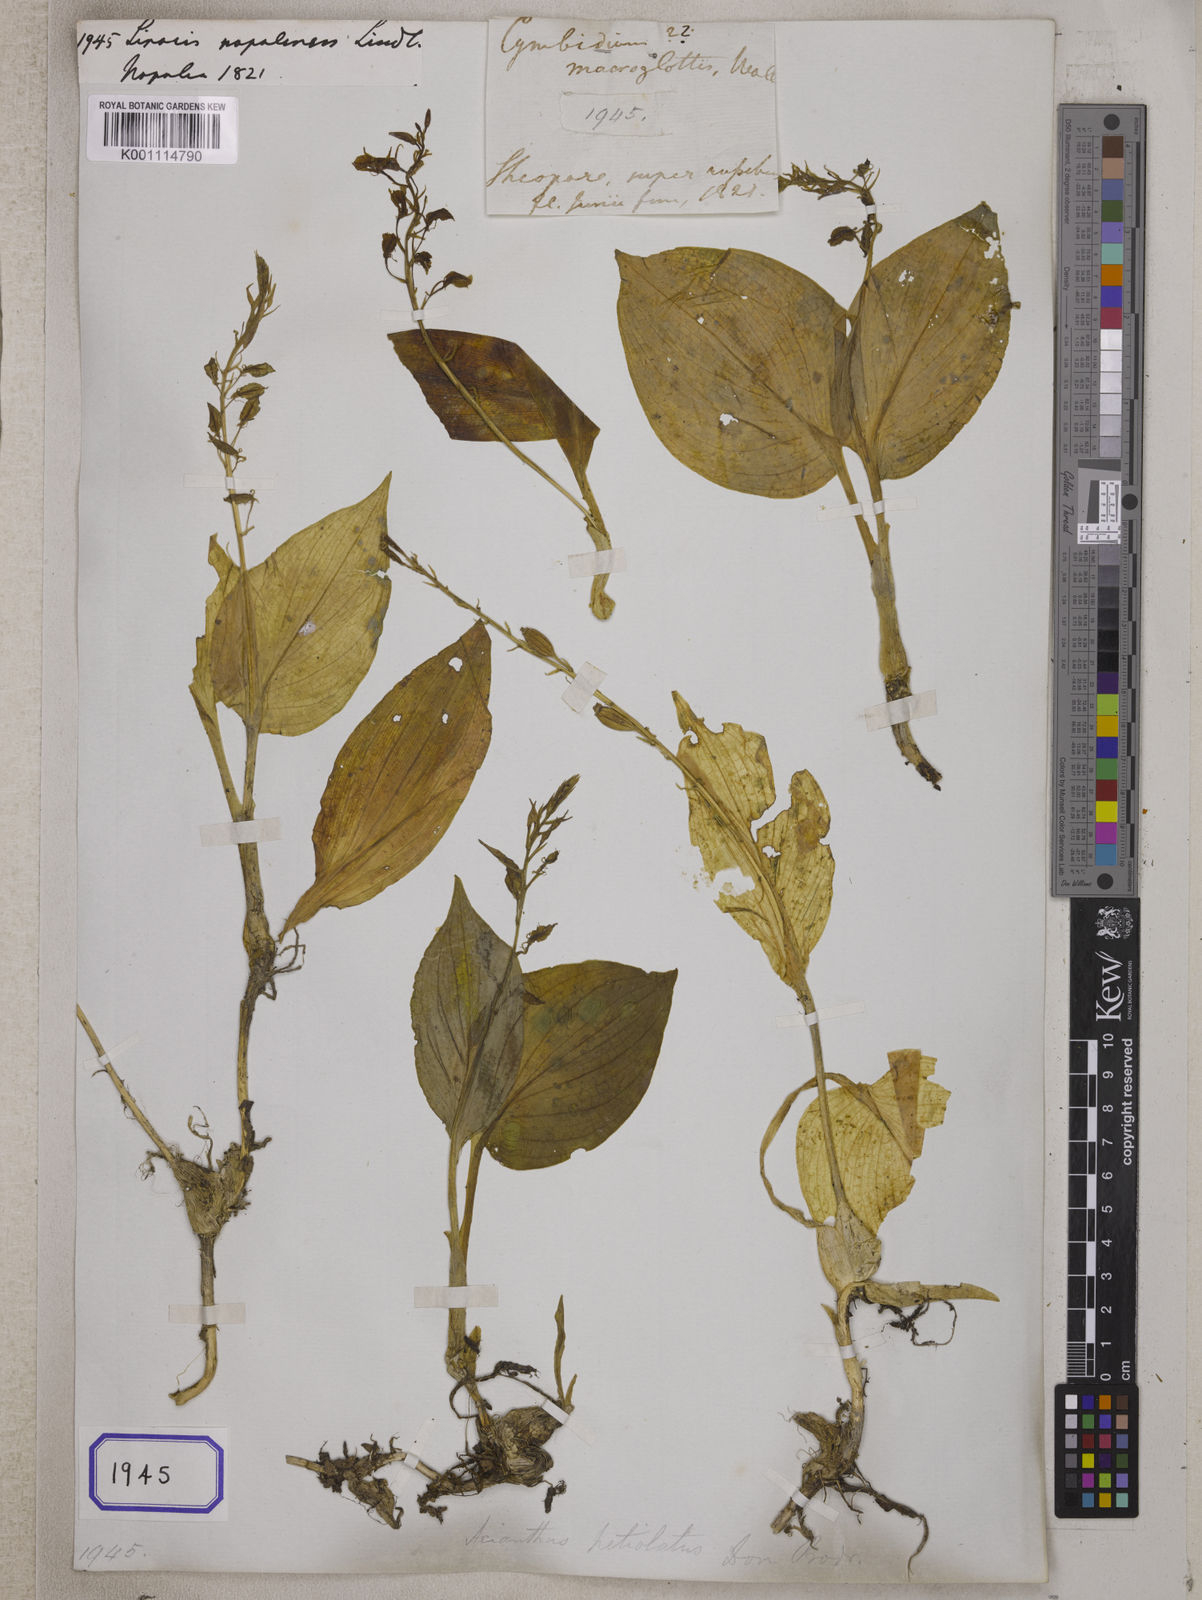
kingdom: Plantae
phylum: Tracheophyta
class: Liliopsida
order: Asparagales
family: Orchidaceae
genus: Liparis
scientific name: Liparis petiolata
